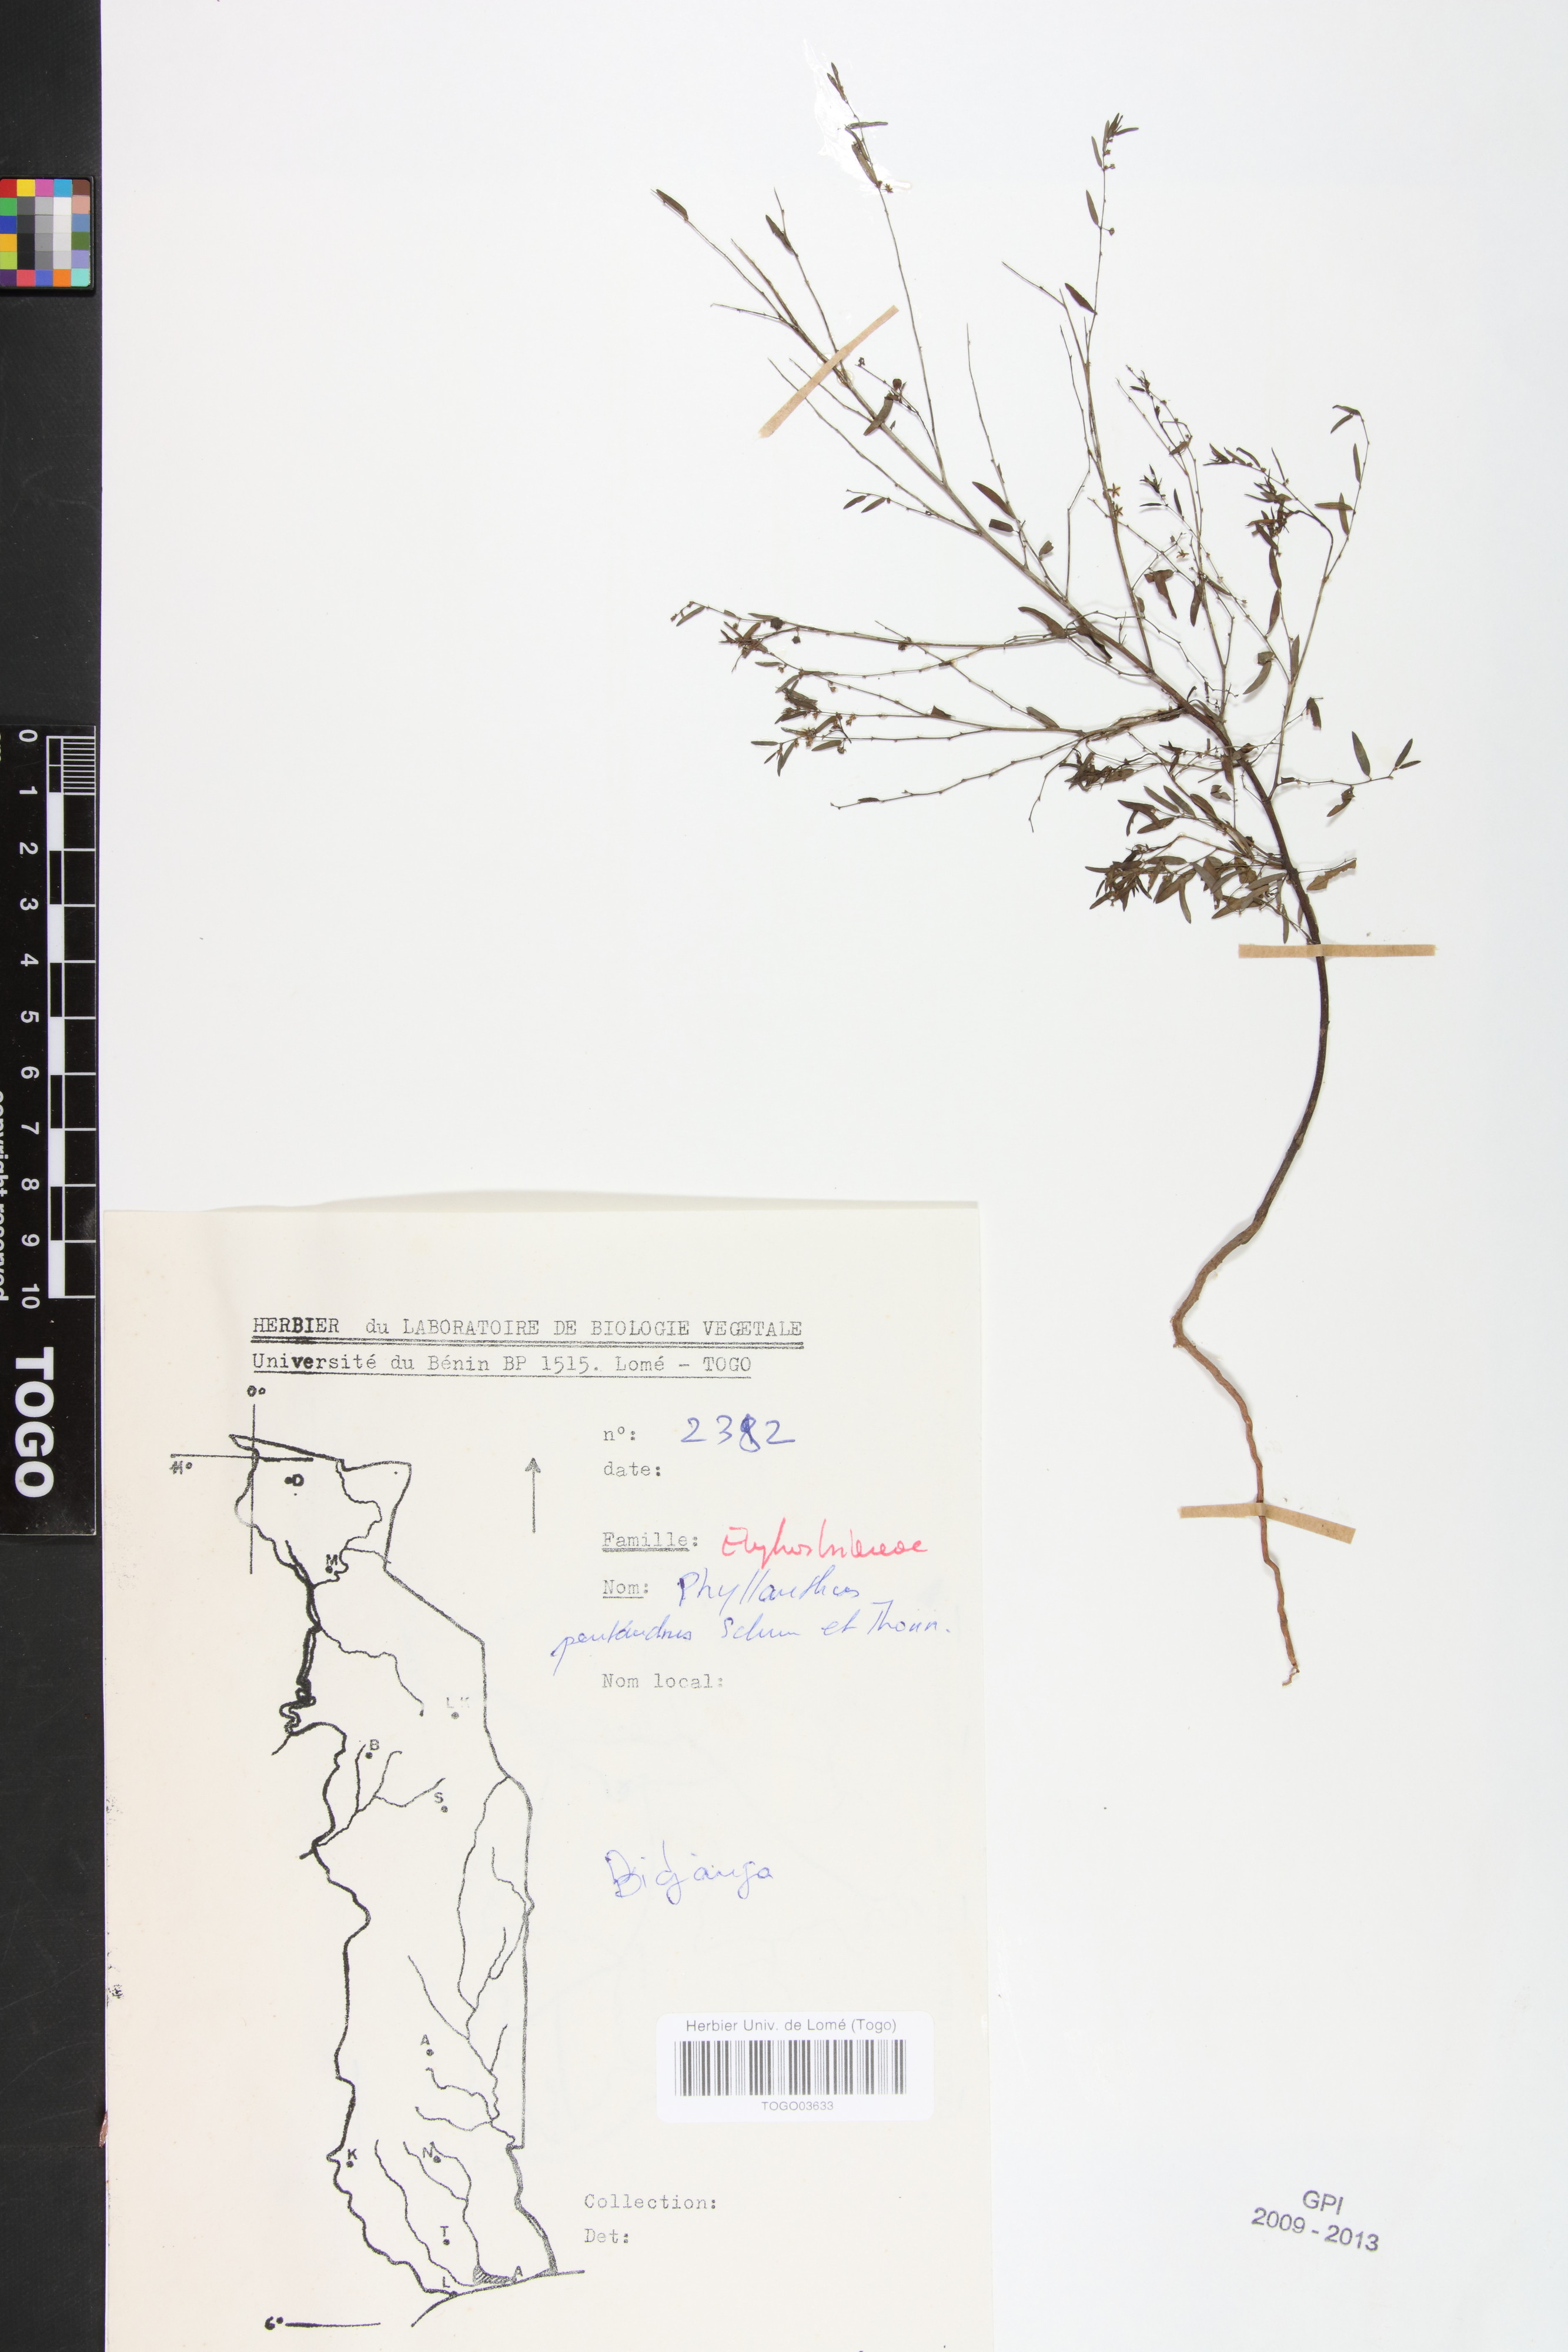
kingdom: Plantae
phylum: Tracheophyta
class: Magnoliopsida
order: Malpighiales
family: Phyllanthaceae
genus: Phyllanthus
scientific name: Phyllanthus pentandrus
